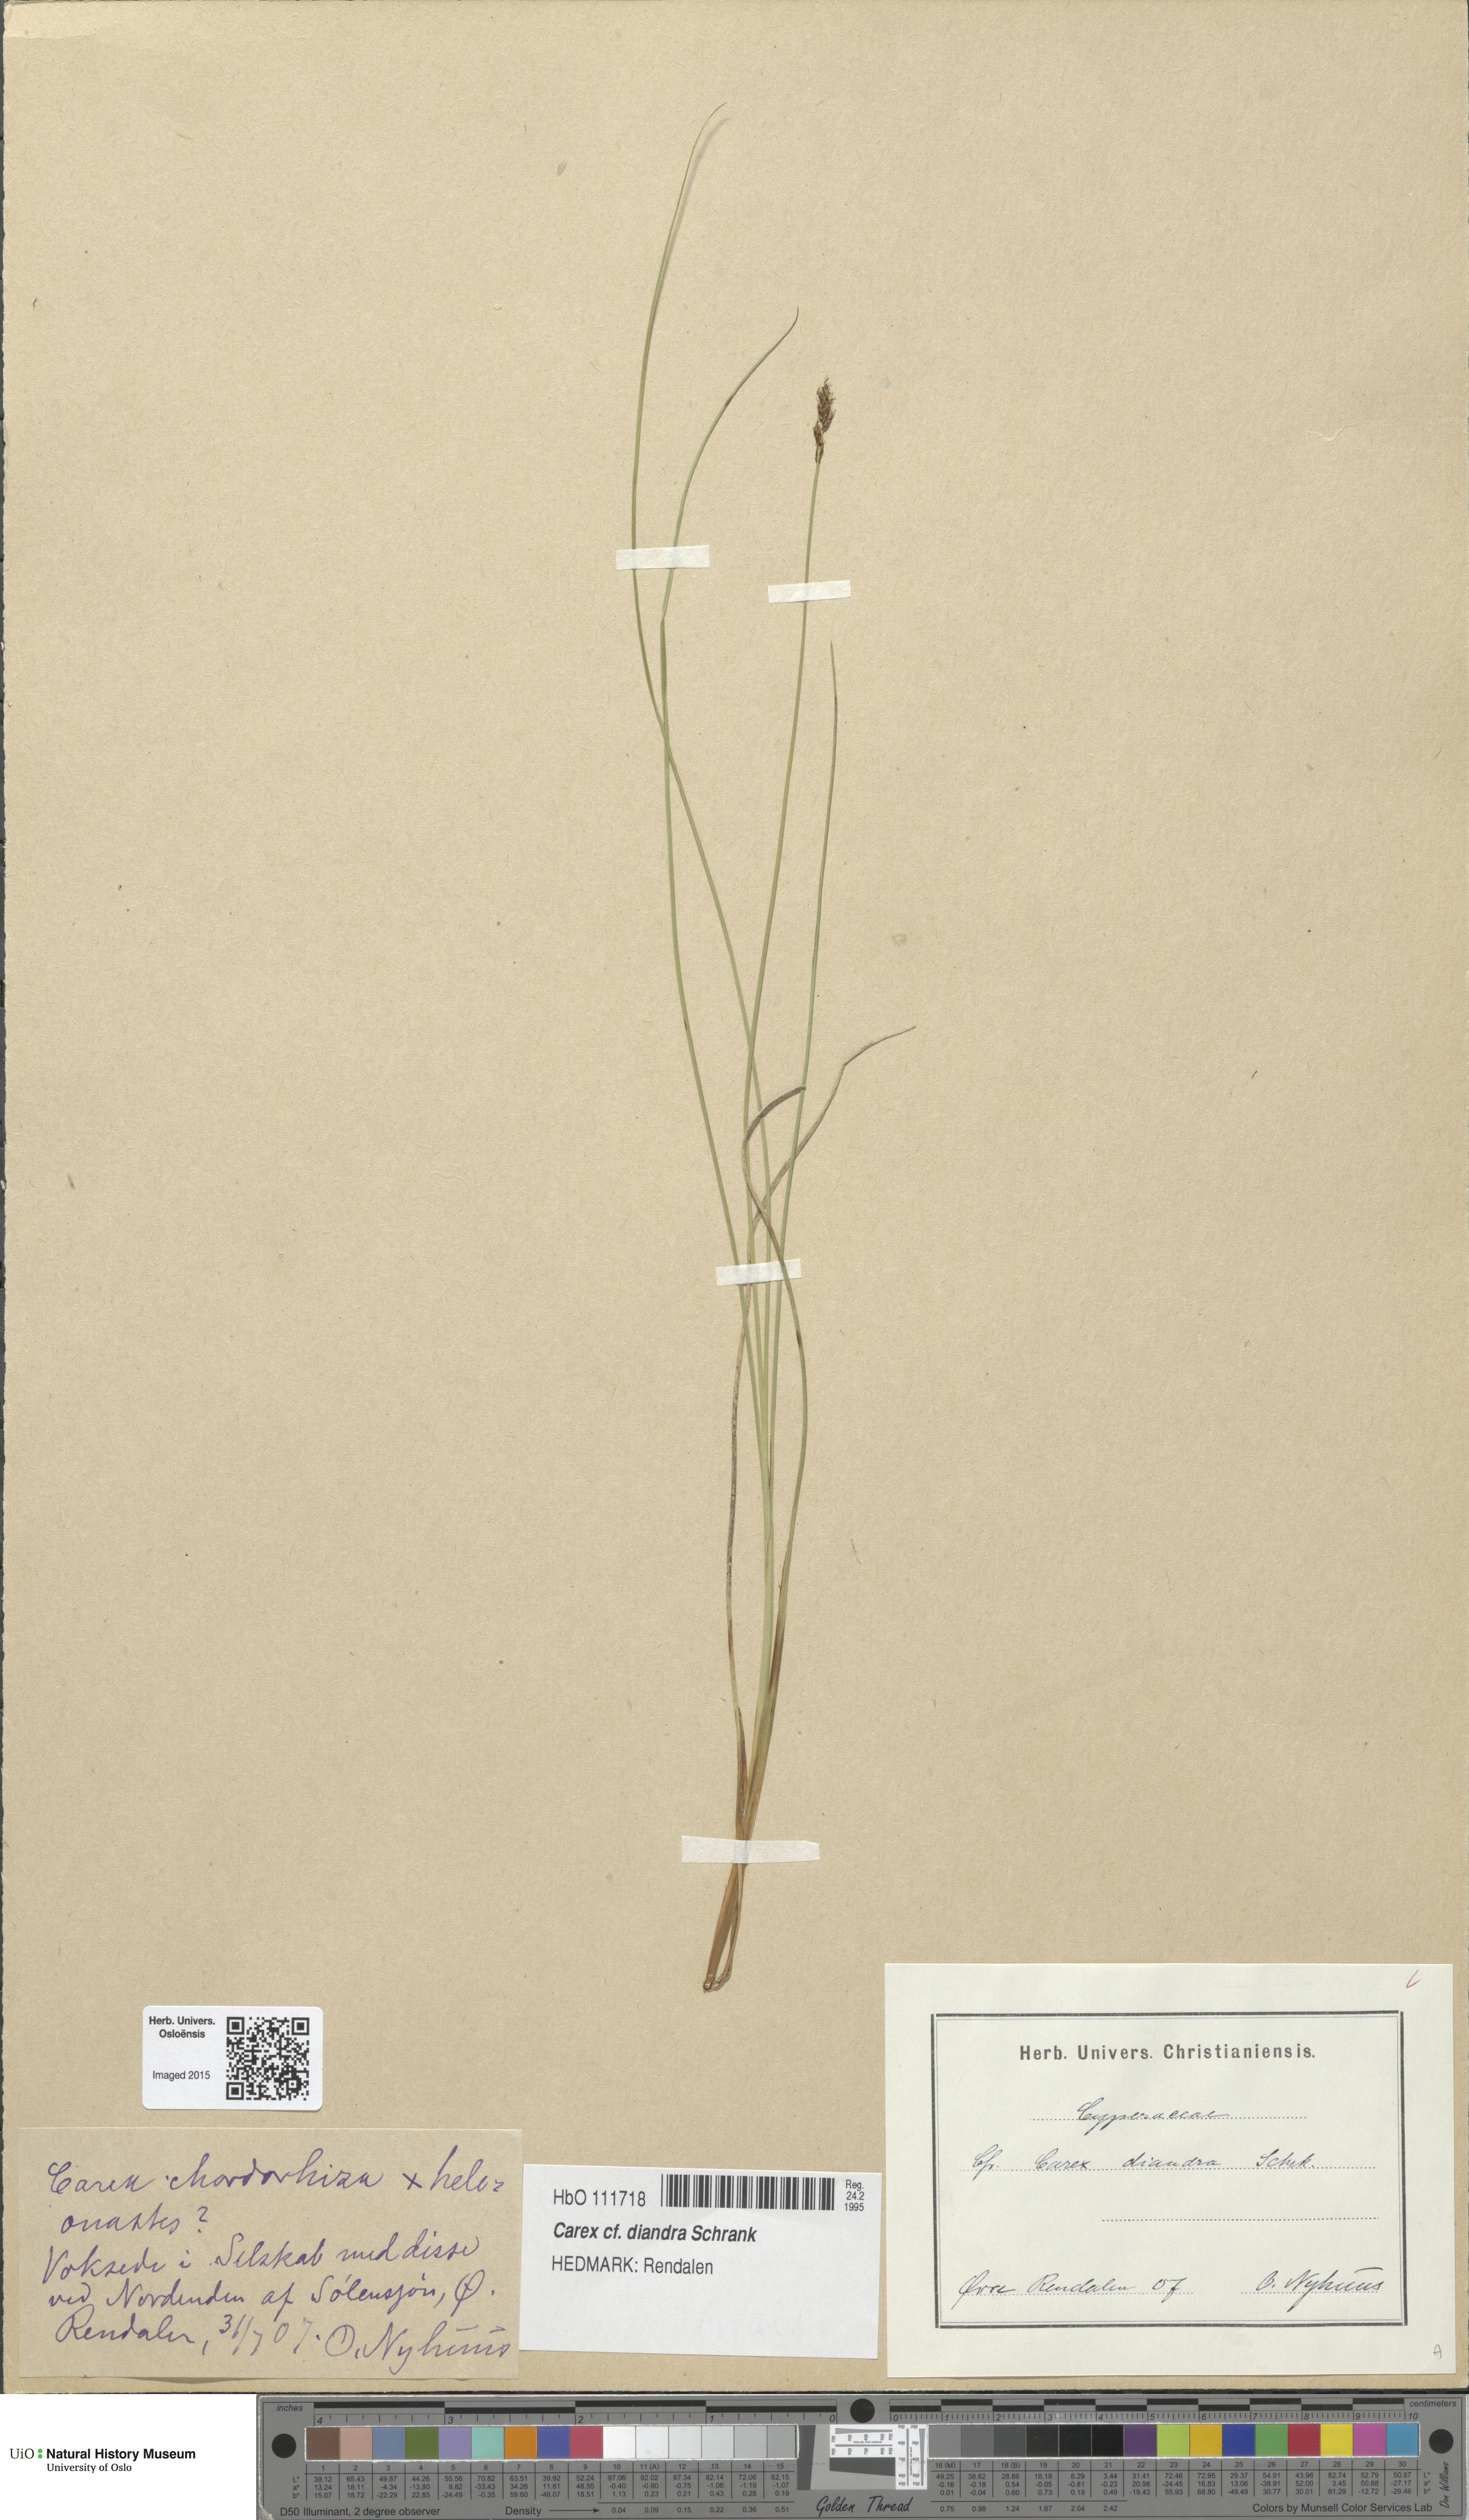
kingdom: Plantae
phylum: Tracheophyta
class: Liliopsida
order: Poales
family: Cyperaceae
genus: Carex
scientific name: Carex diandra
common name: Lesser tussock-sedge
